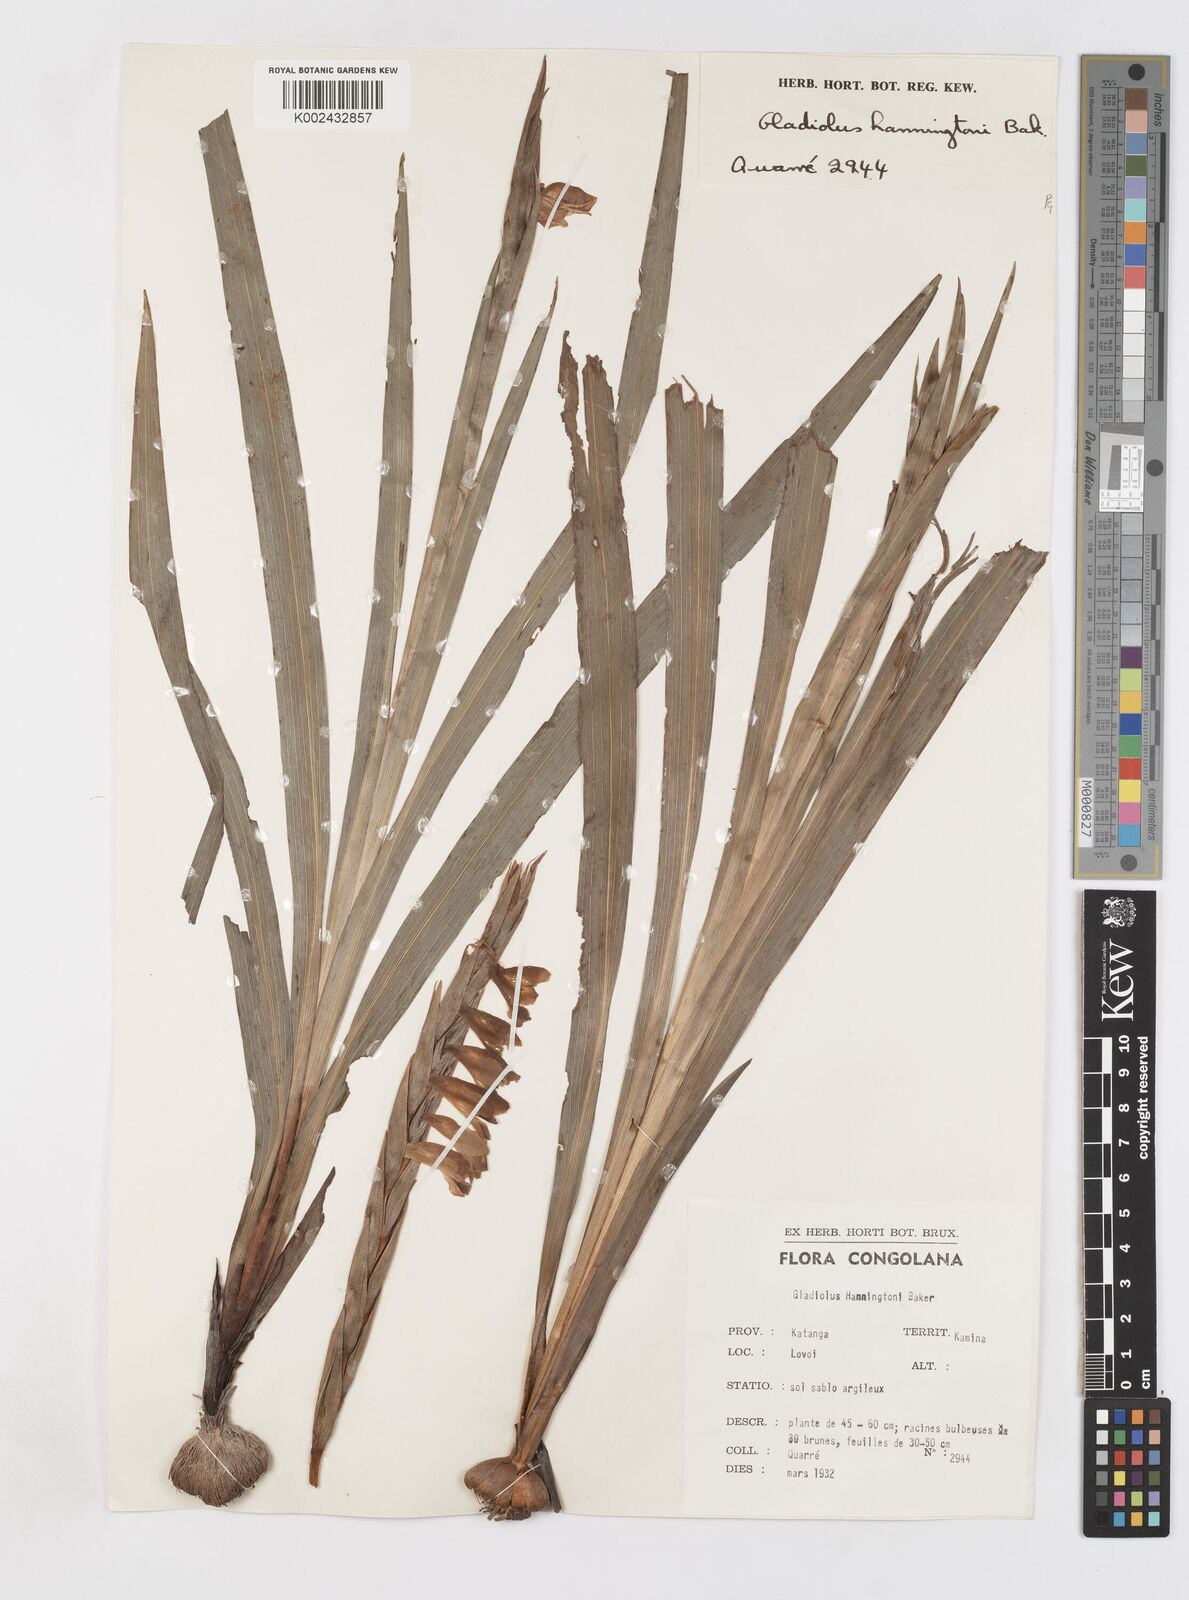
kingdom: Plantae
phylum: Tracheophyta
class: Liliopsida
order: Asparagales
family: Iridaceae
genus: Gladiolus
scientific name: Gladiolus gregarius
